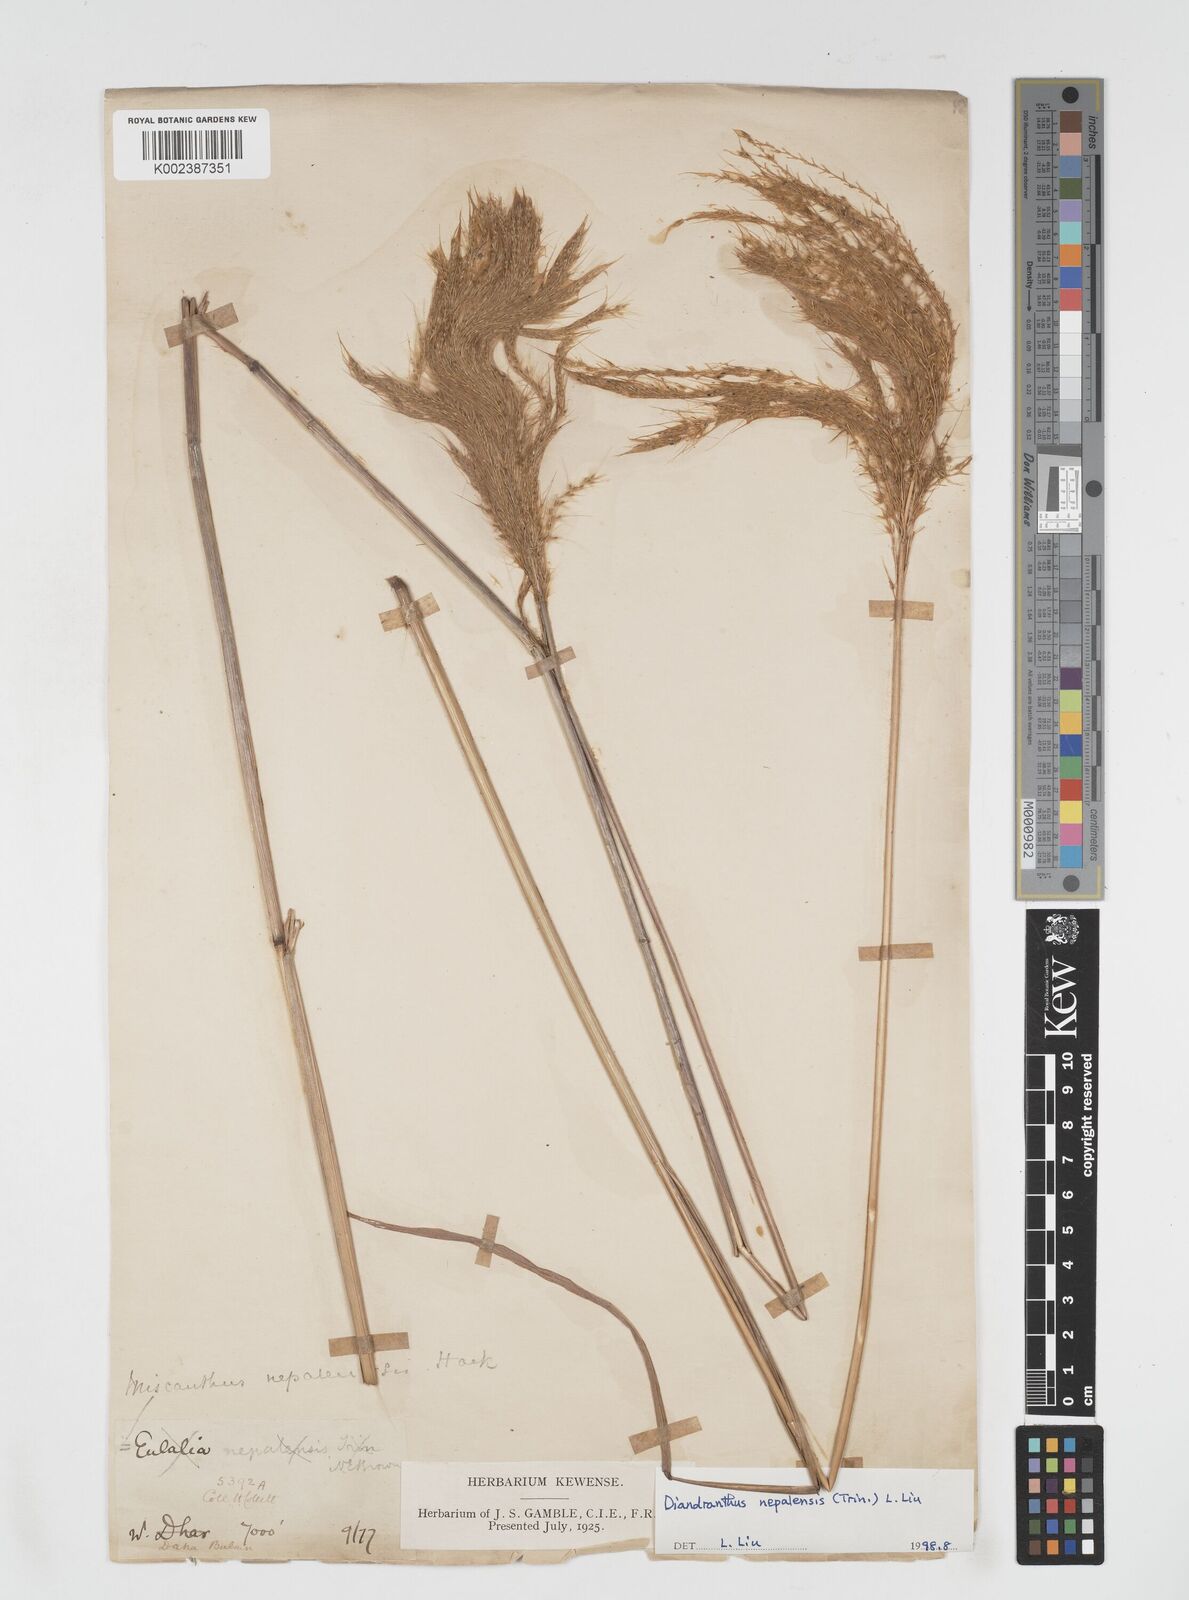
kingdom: Plantae
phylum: Tracheophyta
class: Liliopsida
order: Poales
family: Poaceae
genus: Miscanthus
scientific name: Miscanthus nepalensis
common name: Nepal silver grass
